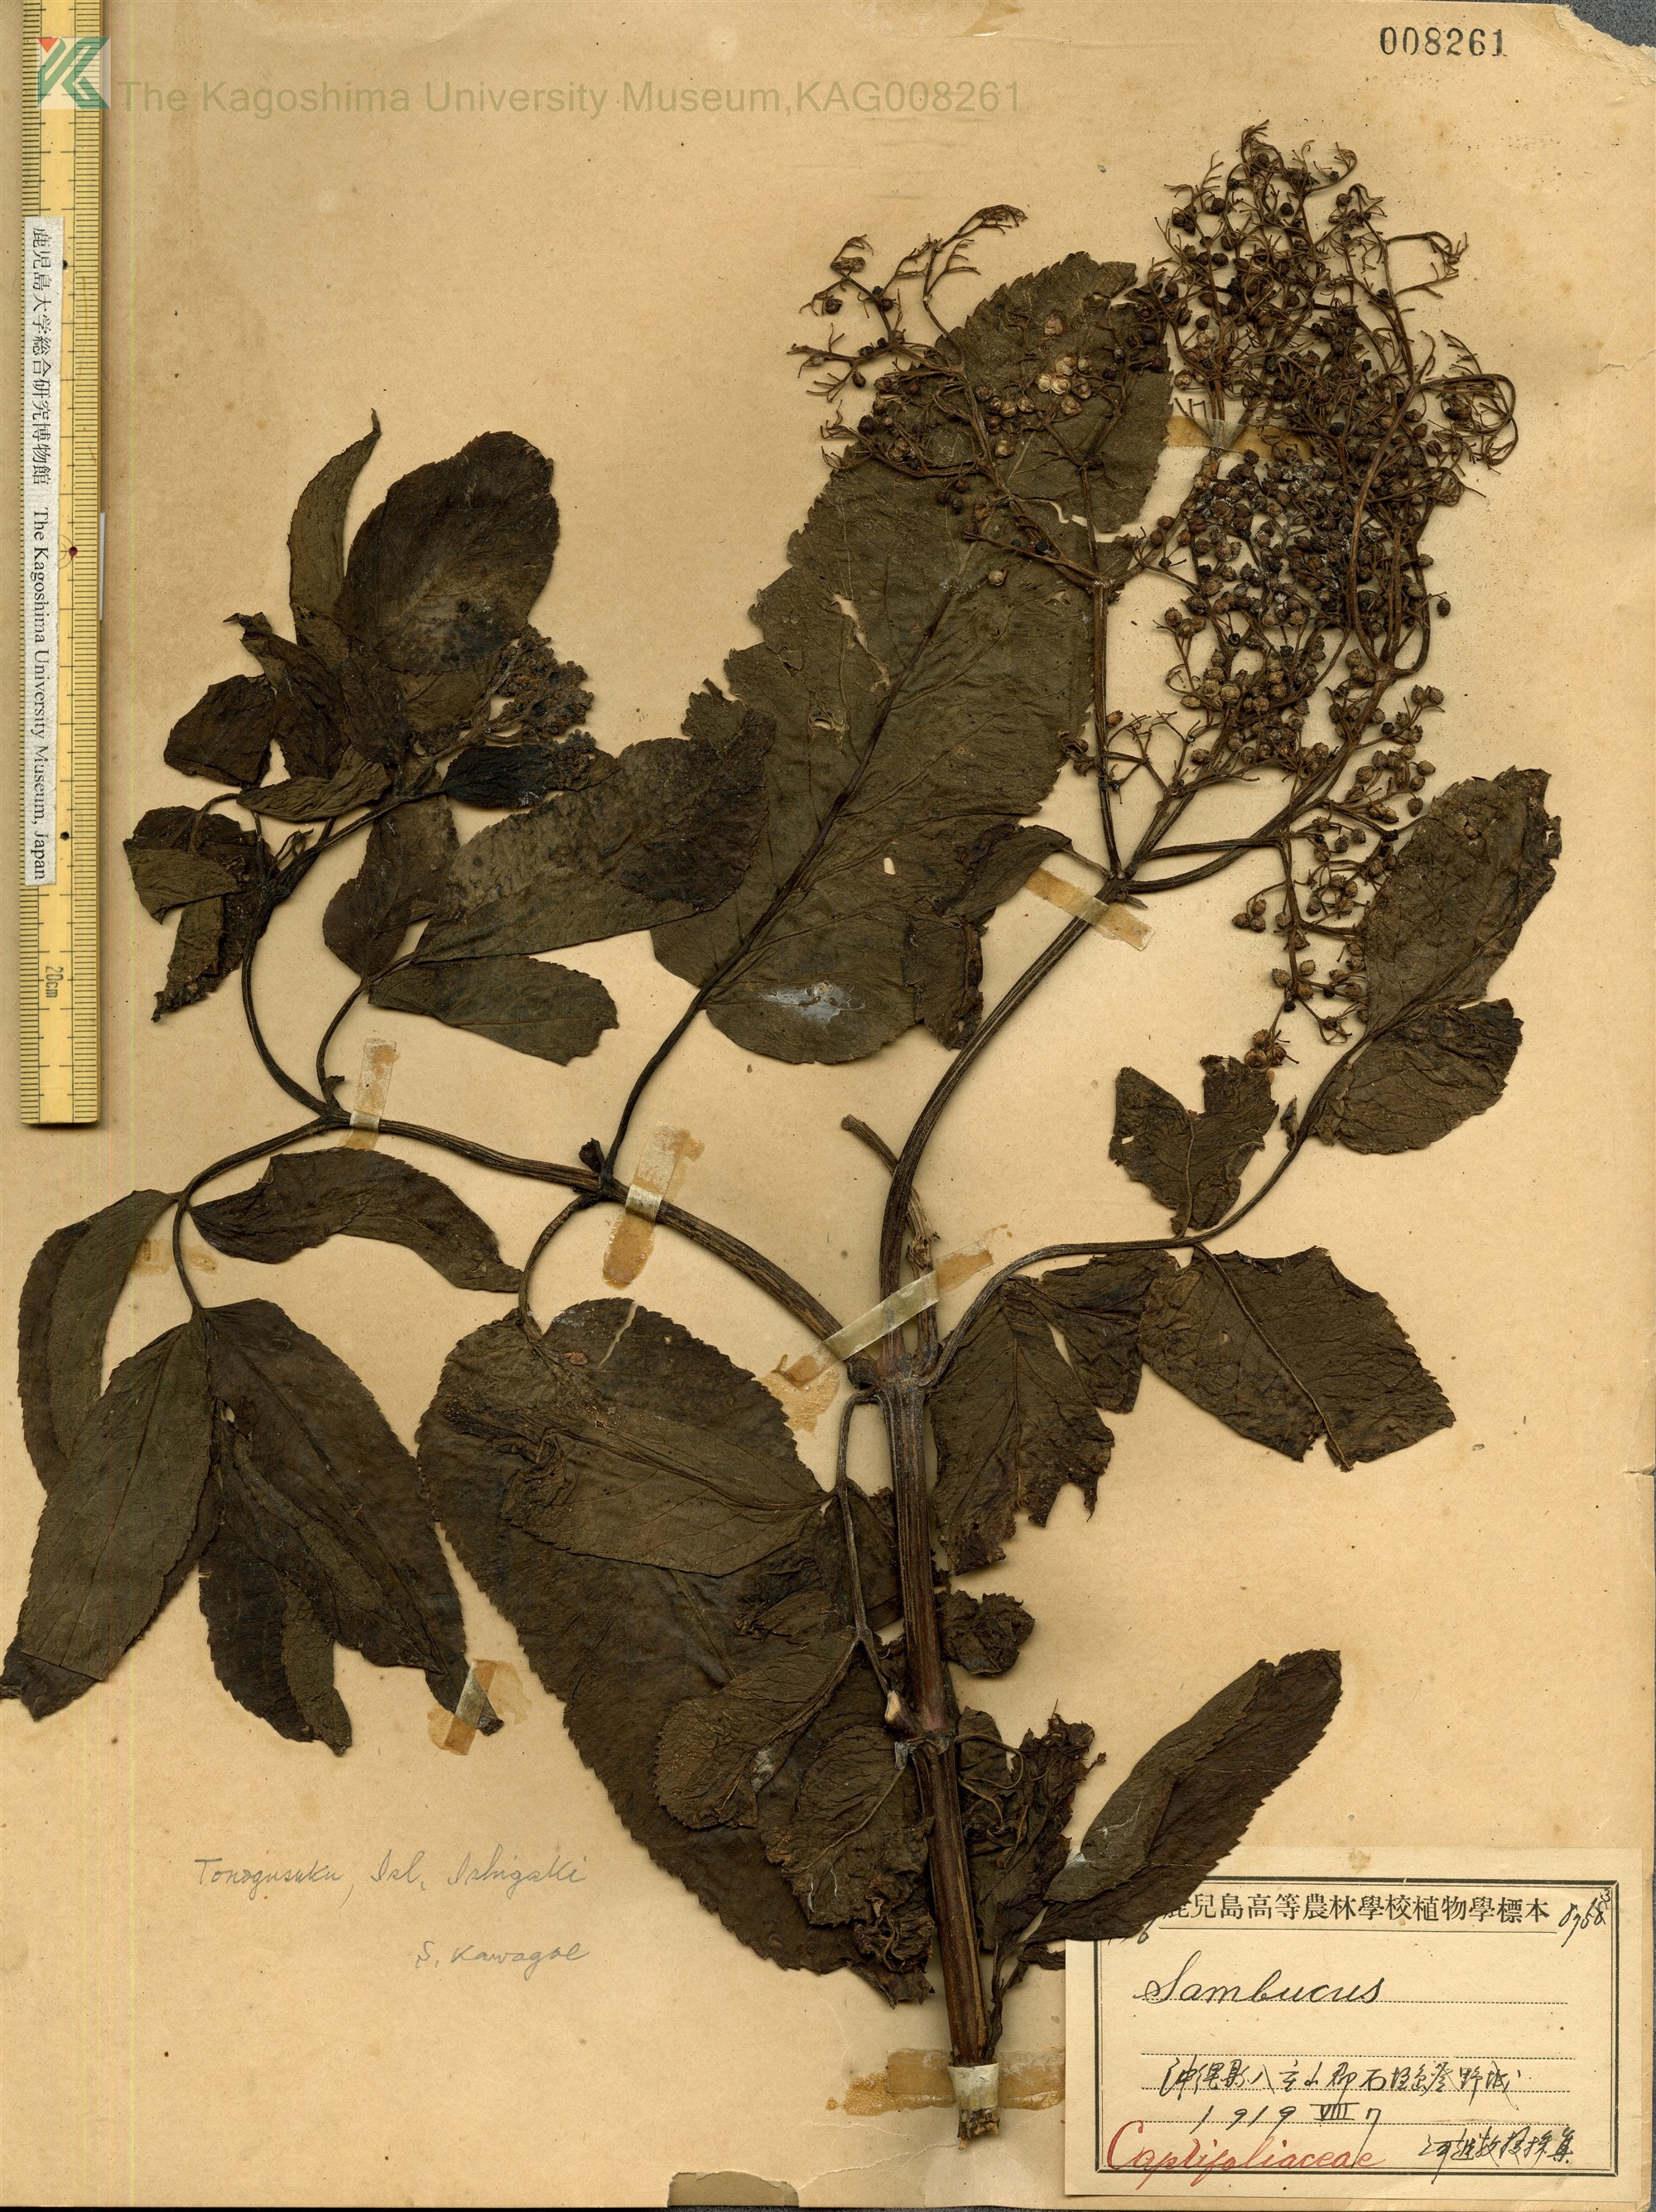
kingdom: Plantae
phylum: Tracheophyta
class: Magnoliopsida
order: Dipsacales
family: Viburnaceae
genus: Sambucus
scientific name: Sambucus javanica
